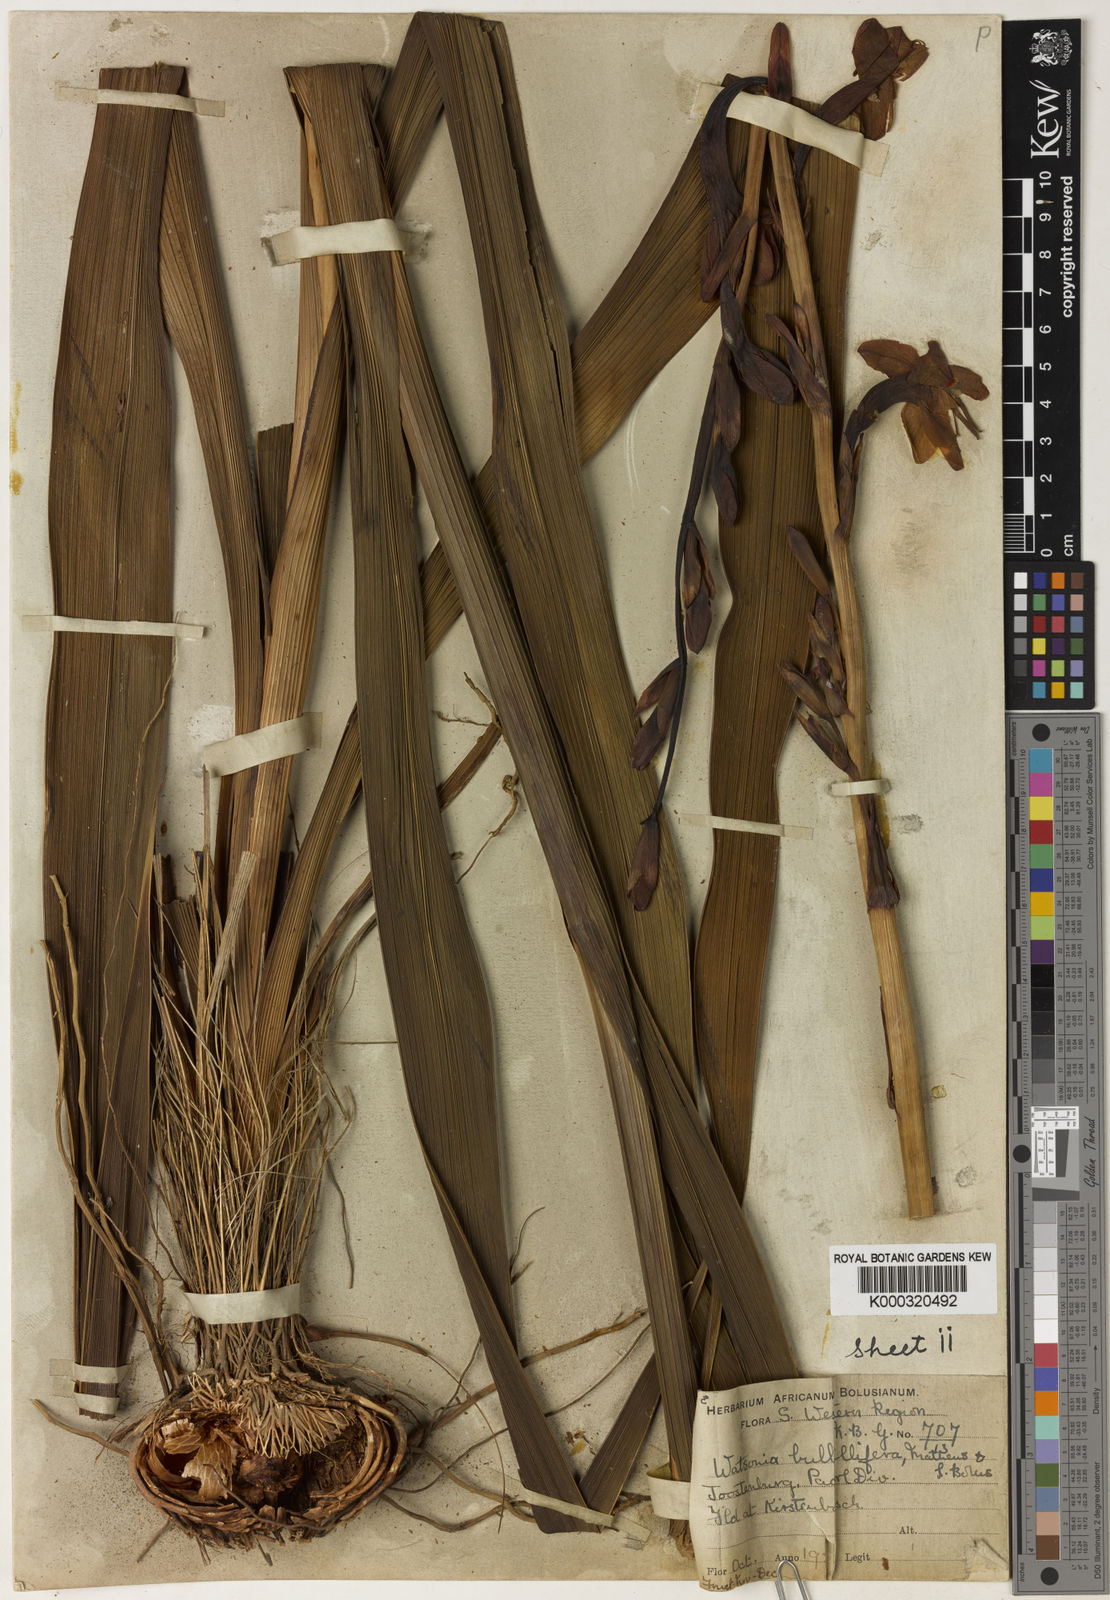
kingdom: Plantae
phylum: Tracheophyta
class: Liliopsida
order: Asparagales
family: Iridaceae
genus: Watsonia
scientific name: Watsonia meriana
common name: Bulbil bugle-lily
